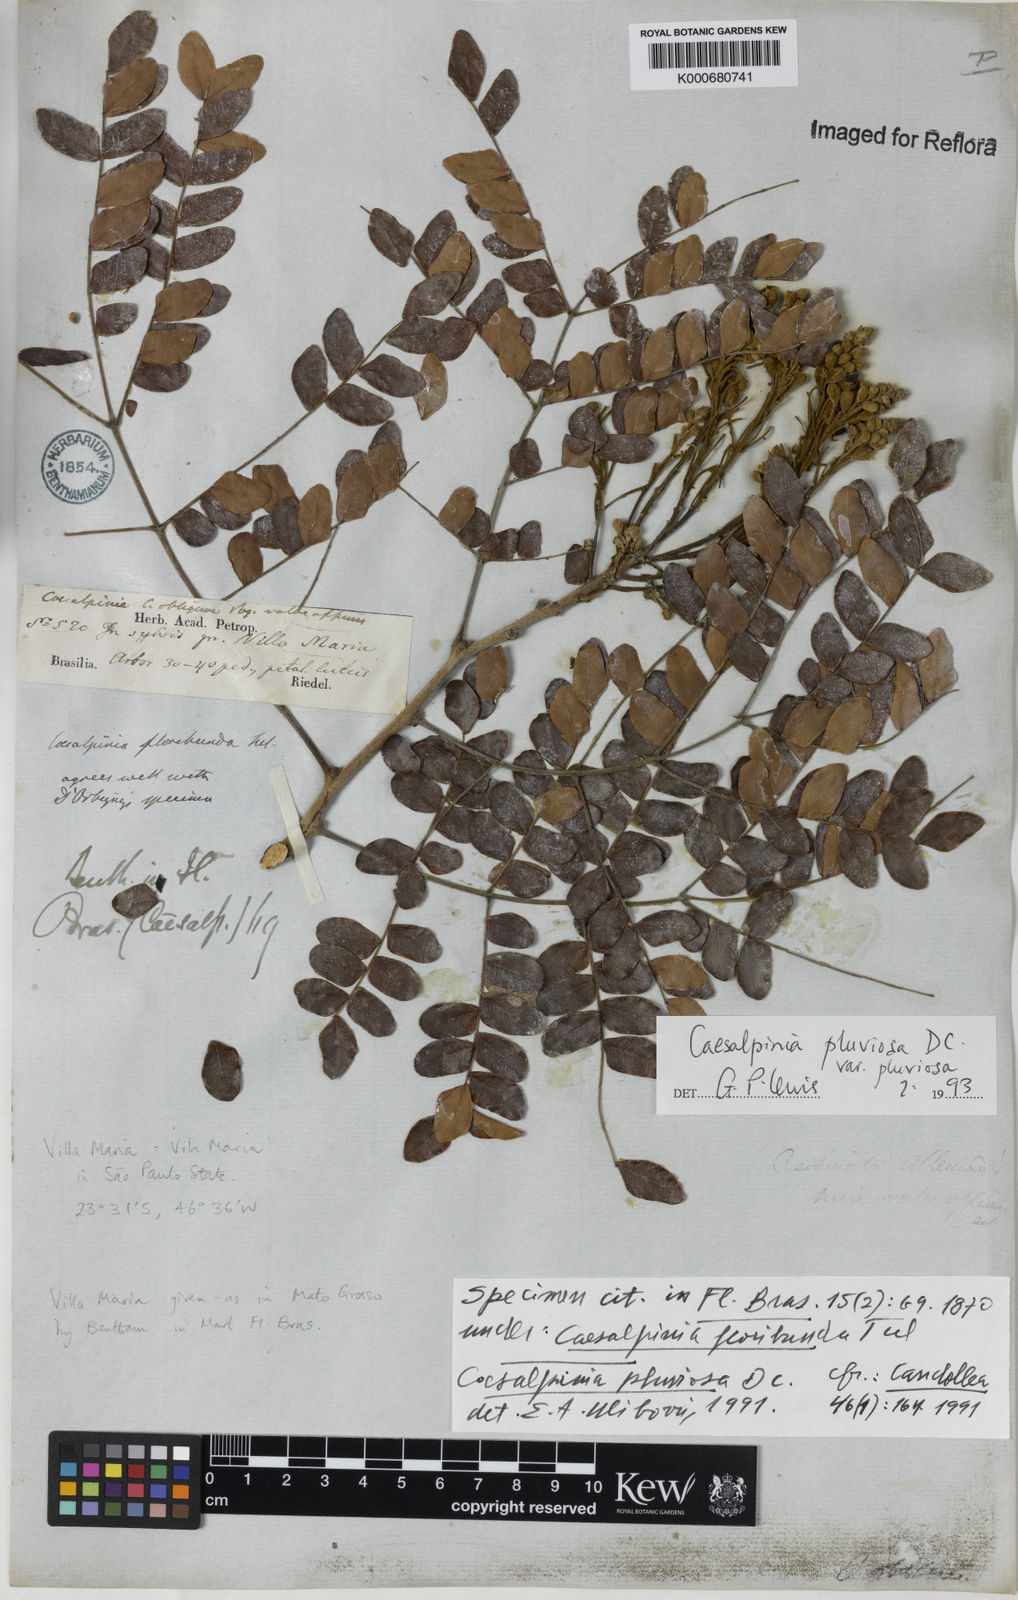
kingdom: Plantae
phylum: Tracheophyta
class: Magnoliopsida
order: Fabales
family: Fabaceae
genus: Cenostigma
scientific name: Cenostigma pluviosum
